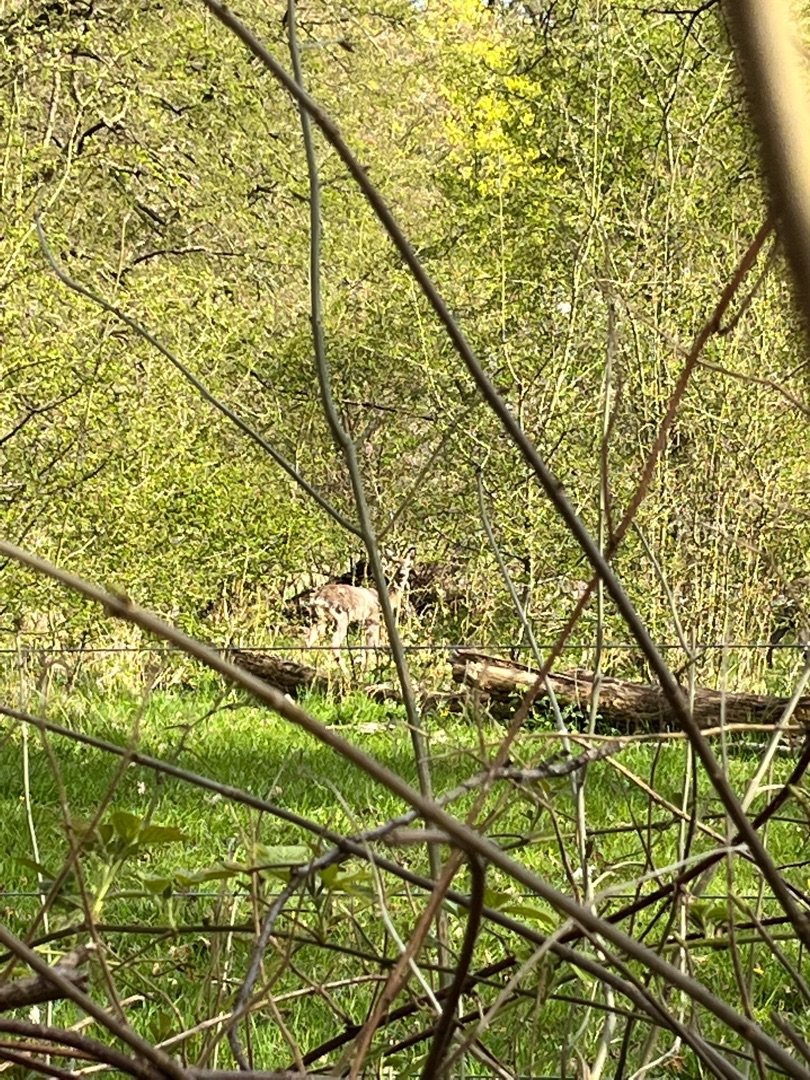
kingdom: Animalia
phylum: Chordata
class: Mammalia
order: Artiodactyla
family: Cervidae
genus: Capreolus
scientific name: Capreolus capreolus
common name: Rådyr
